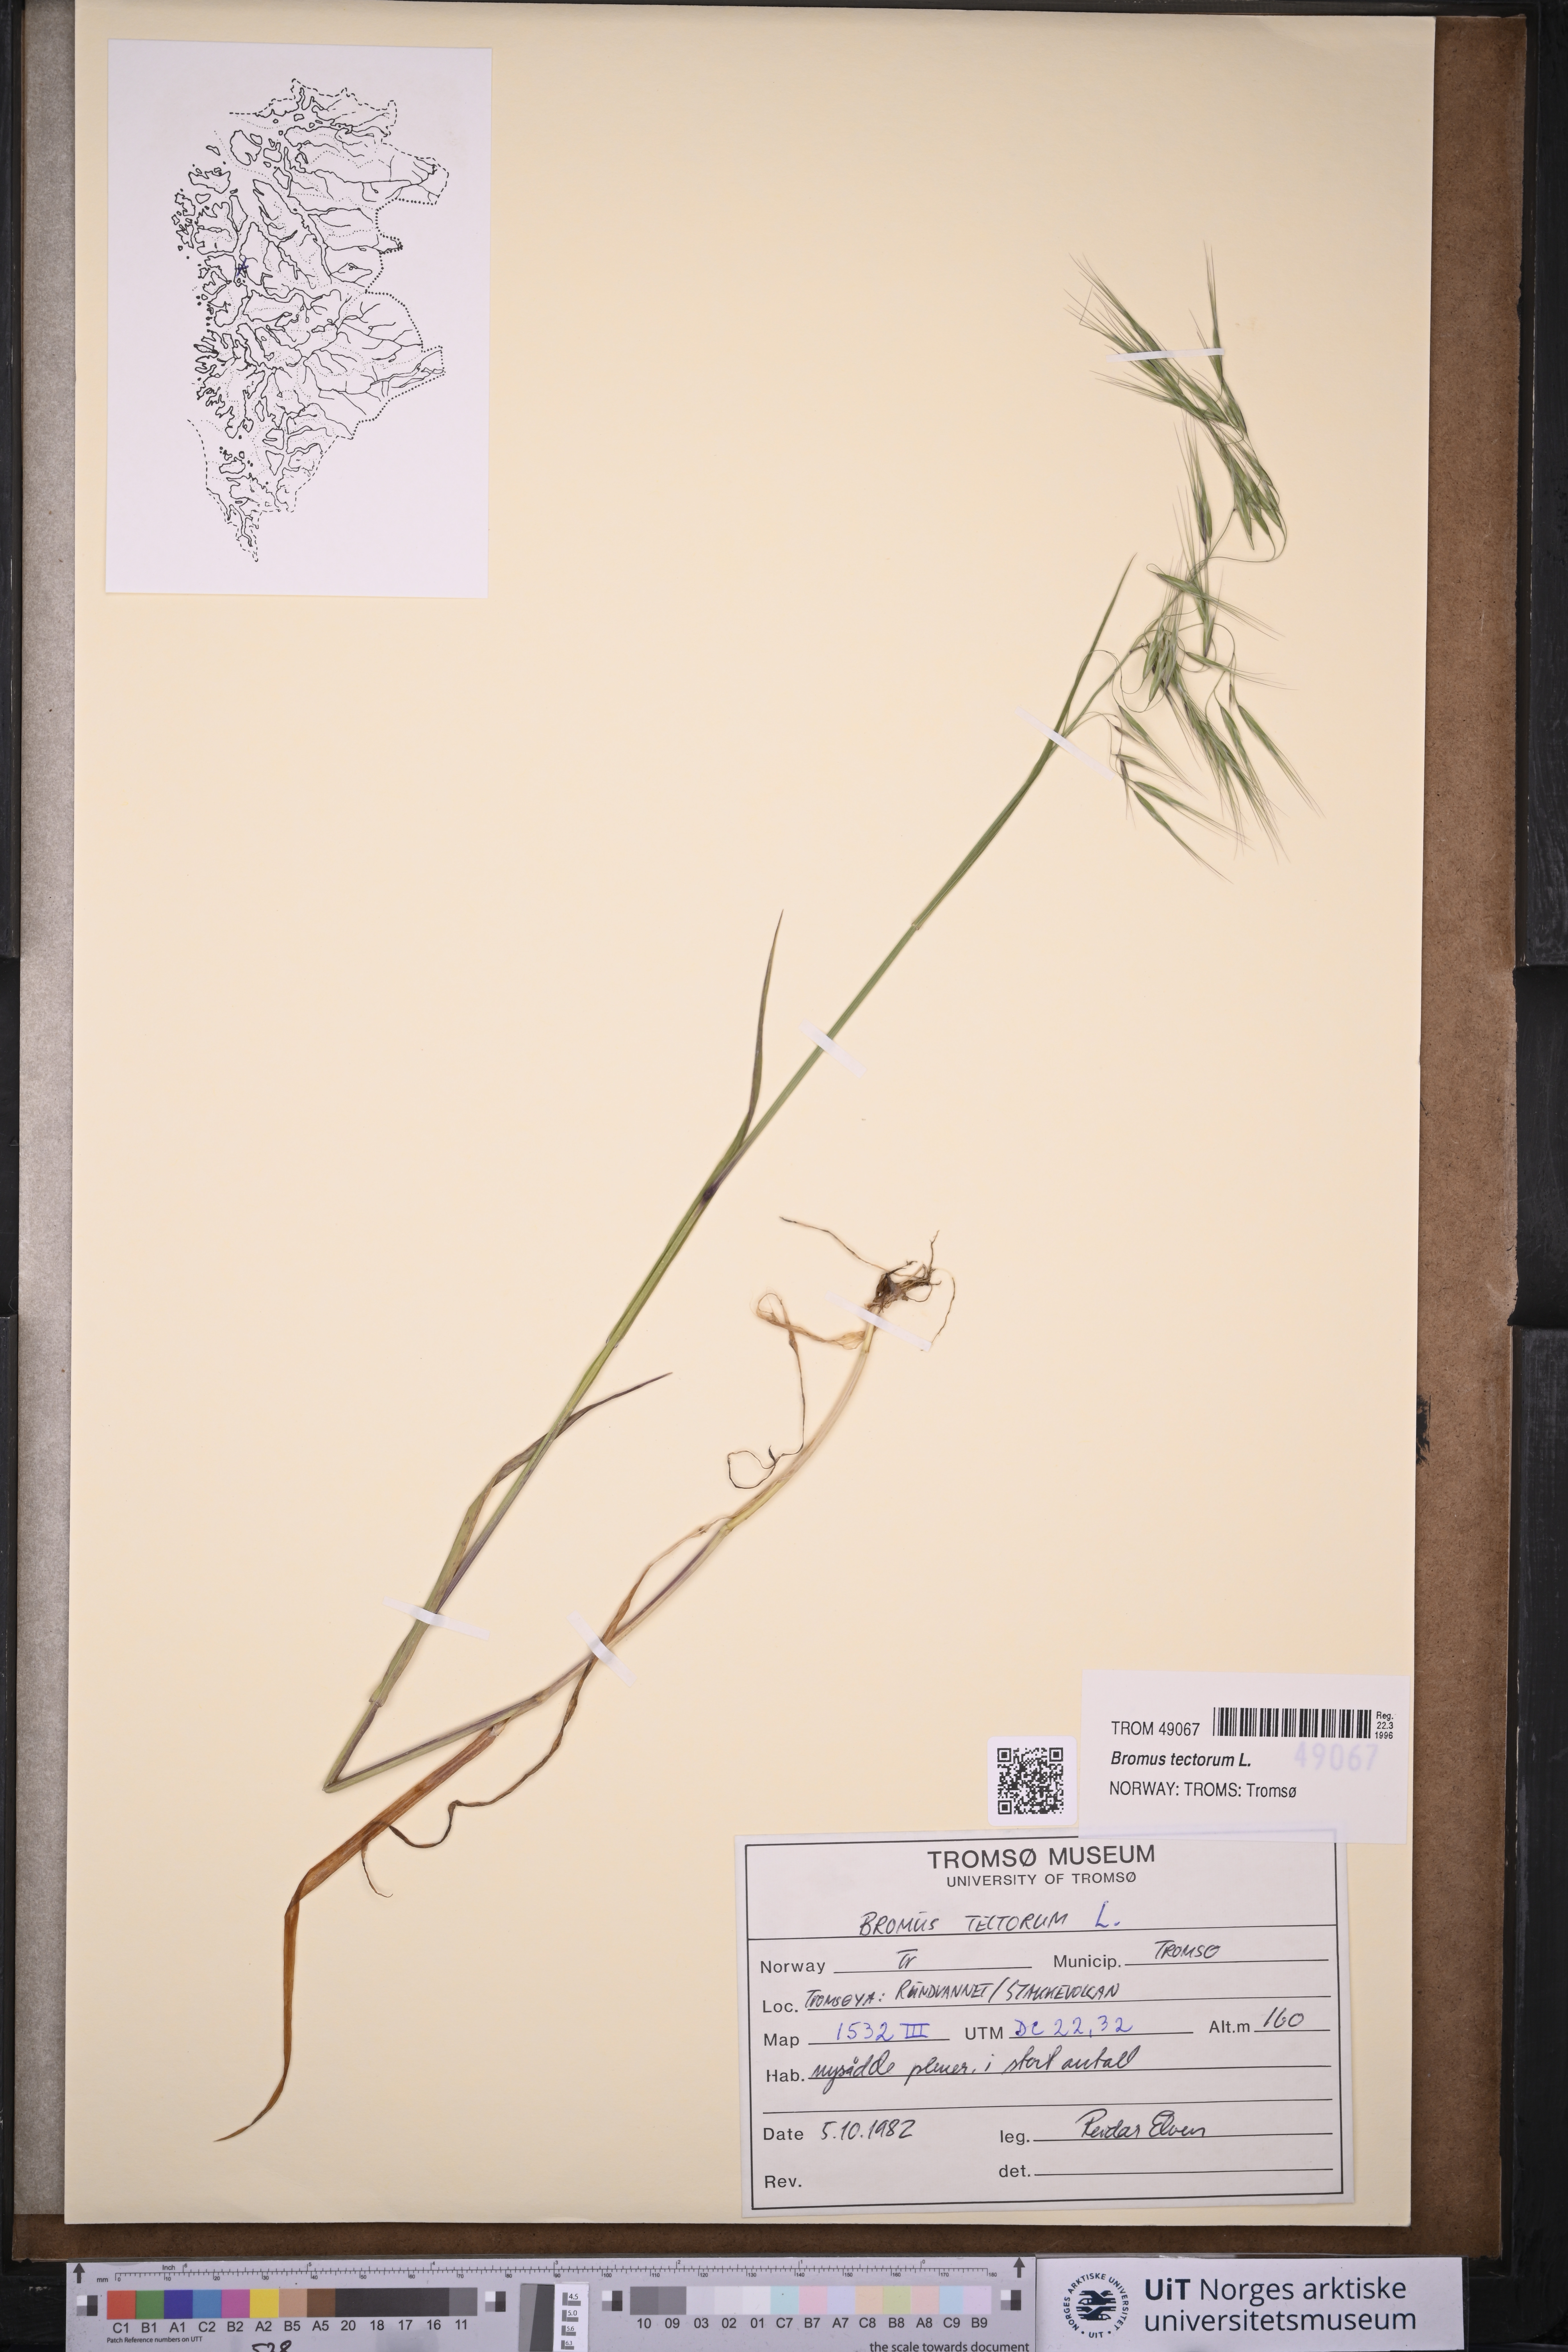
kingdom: Plantae
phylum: Tracheophyta
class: Liliopsida
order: Poales
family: Poaceae
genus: Bromus
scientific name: Bromus tectorum
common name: Cheatgrass
